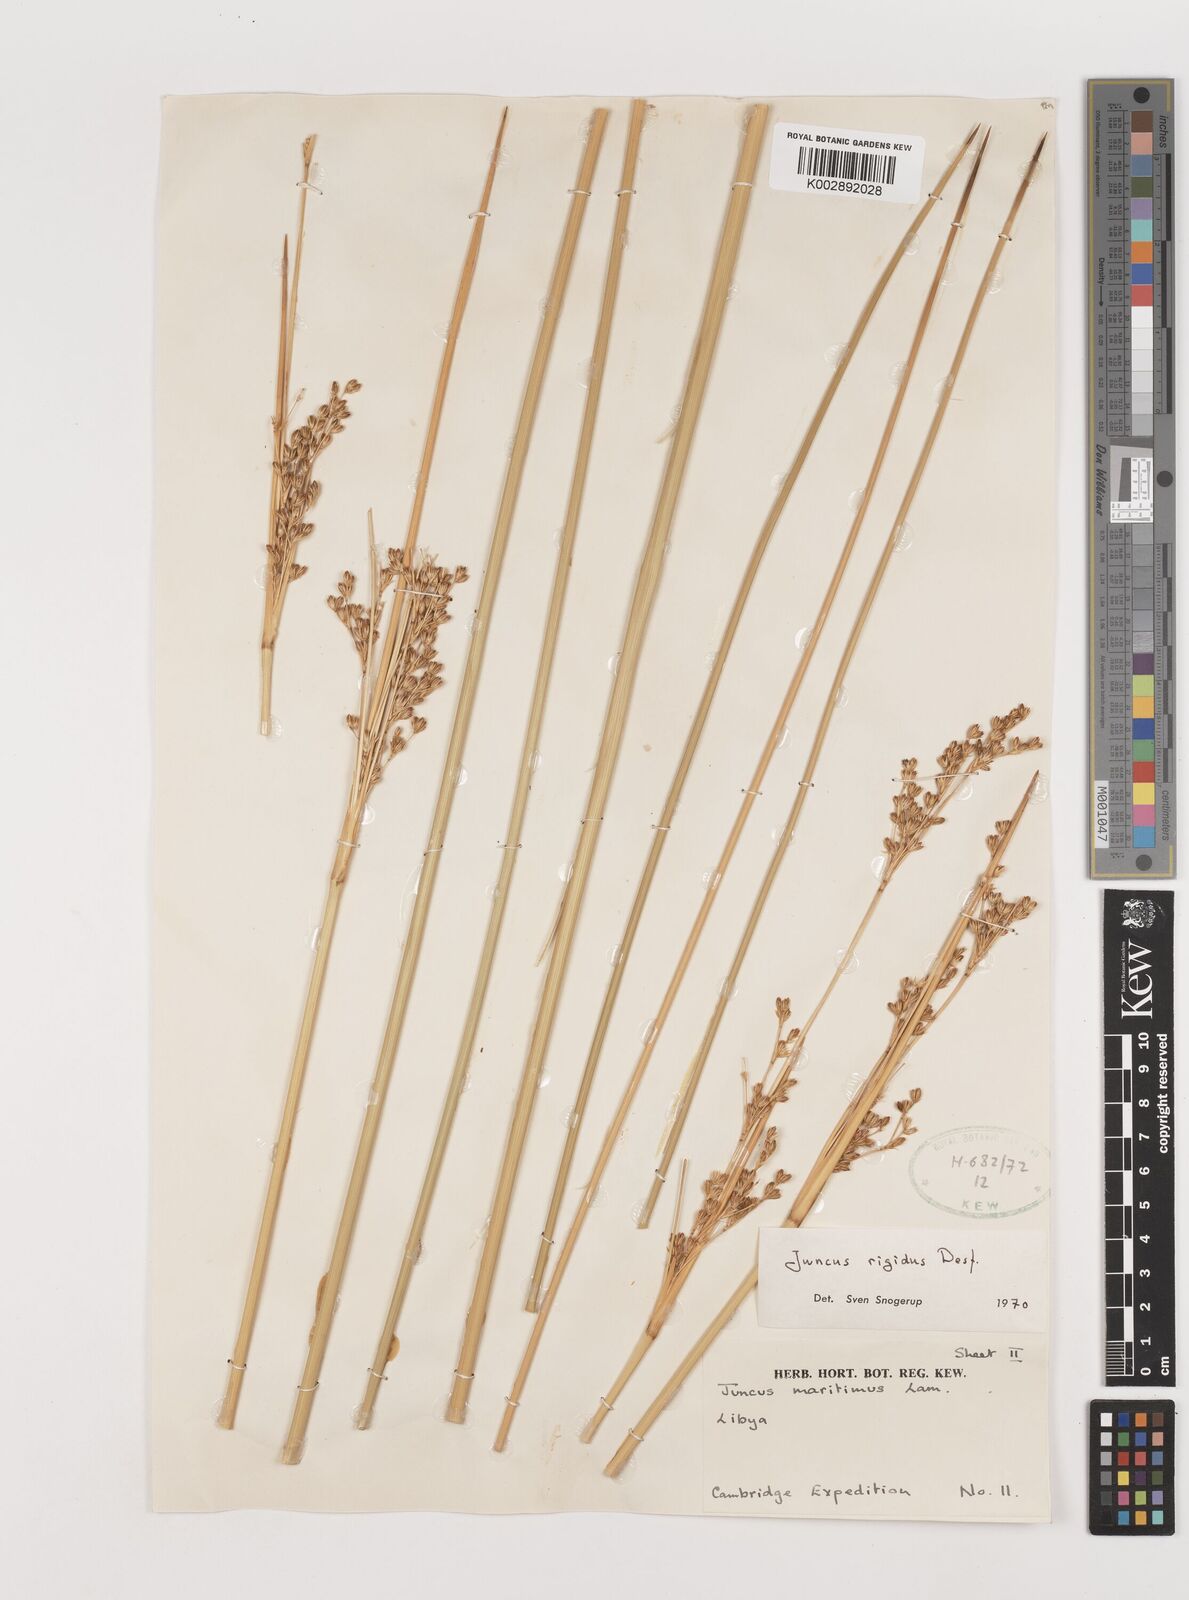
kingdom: Plantae
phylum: Tracheophyta
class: Liliopsida
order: Poales
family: Juncaceae
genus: Juncus
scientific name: Juncus rigidus
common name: Hard sea rush
